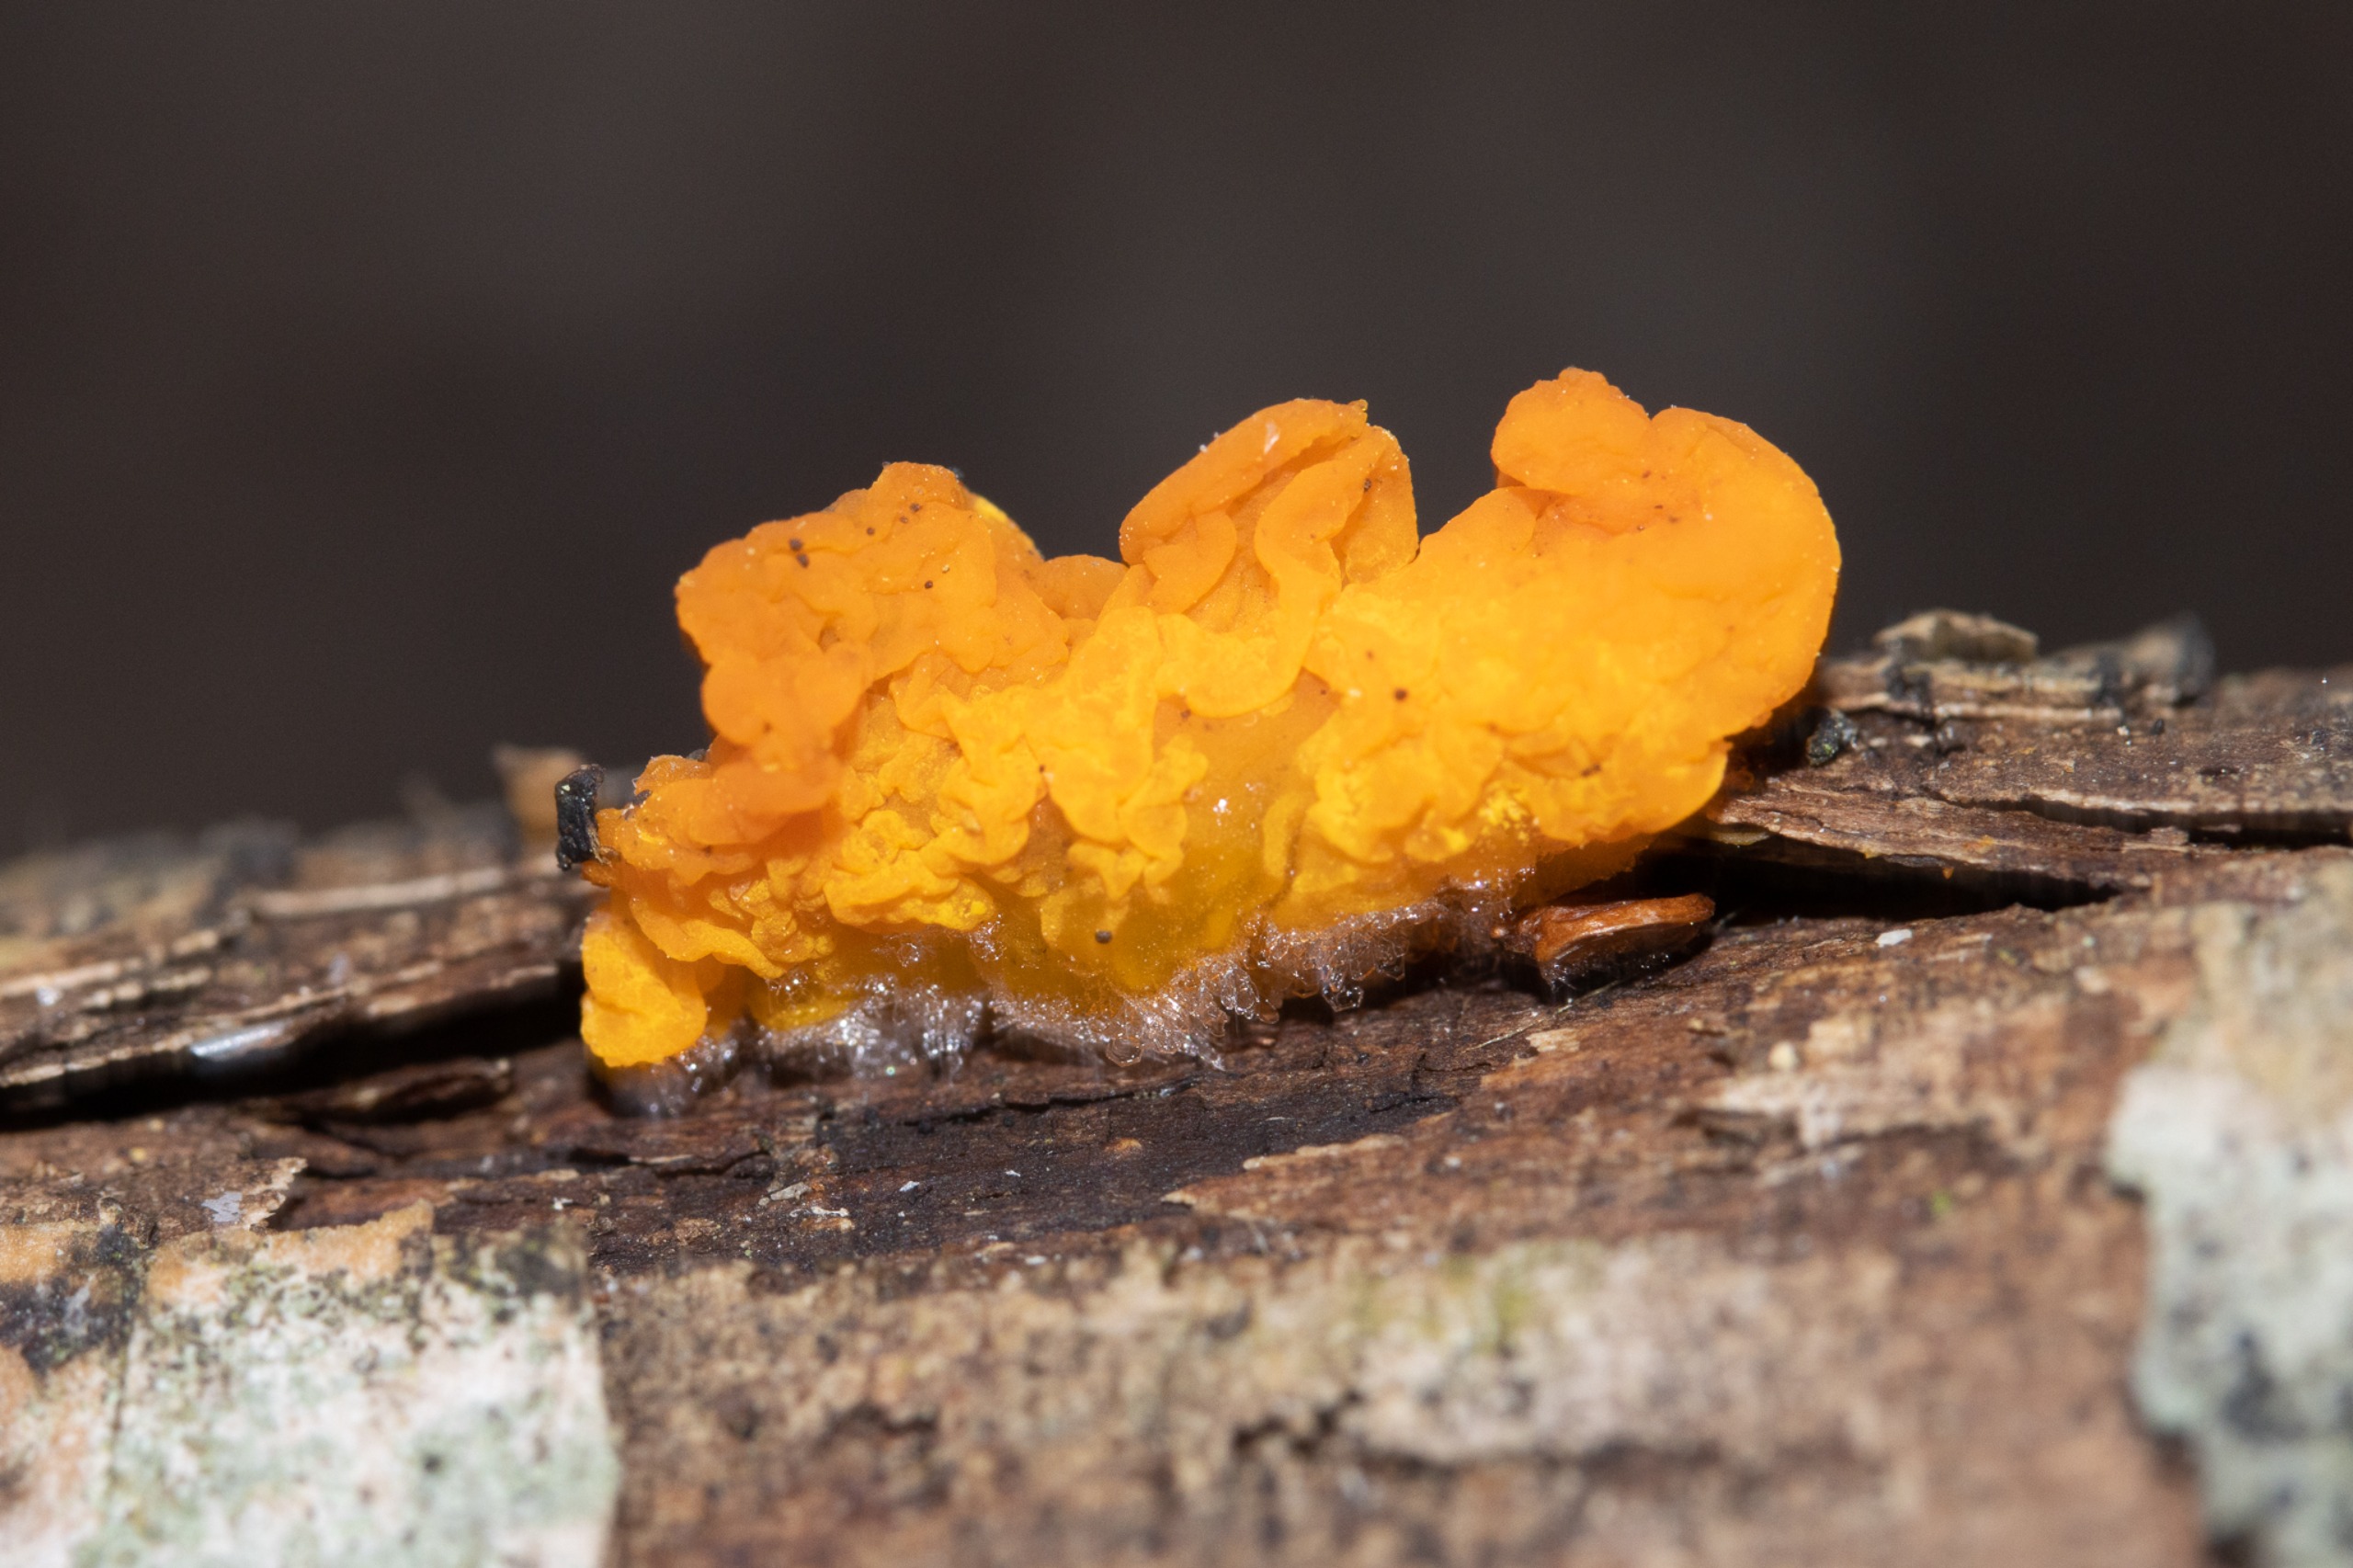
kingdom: Fungi
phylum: Basidiomycota
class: Tremellomycetes
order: Tremellales
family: Tremellaceae
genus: Tremella
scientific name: Tremella mesenterica
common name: Gul bævresvamp
